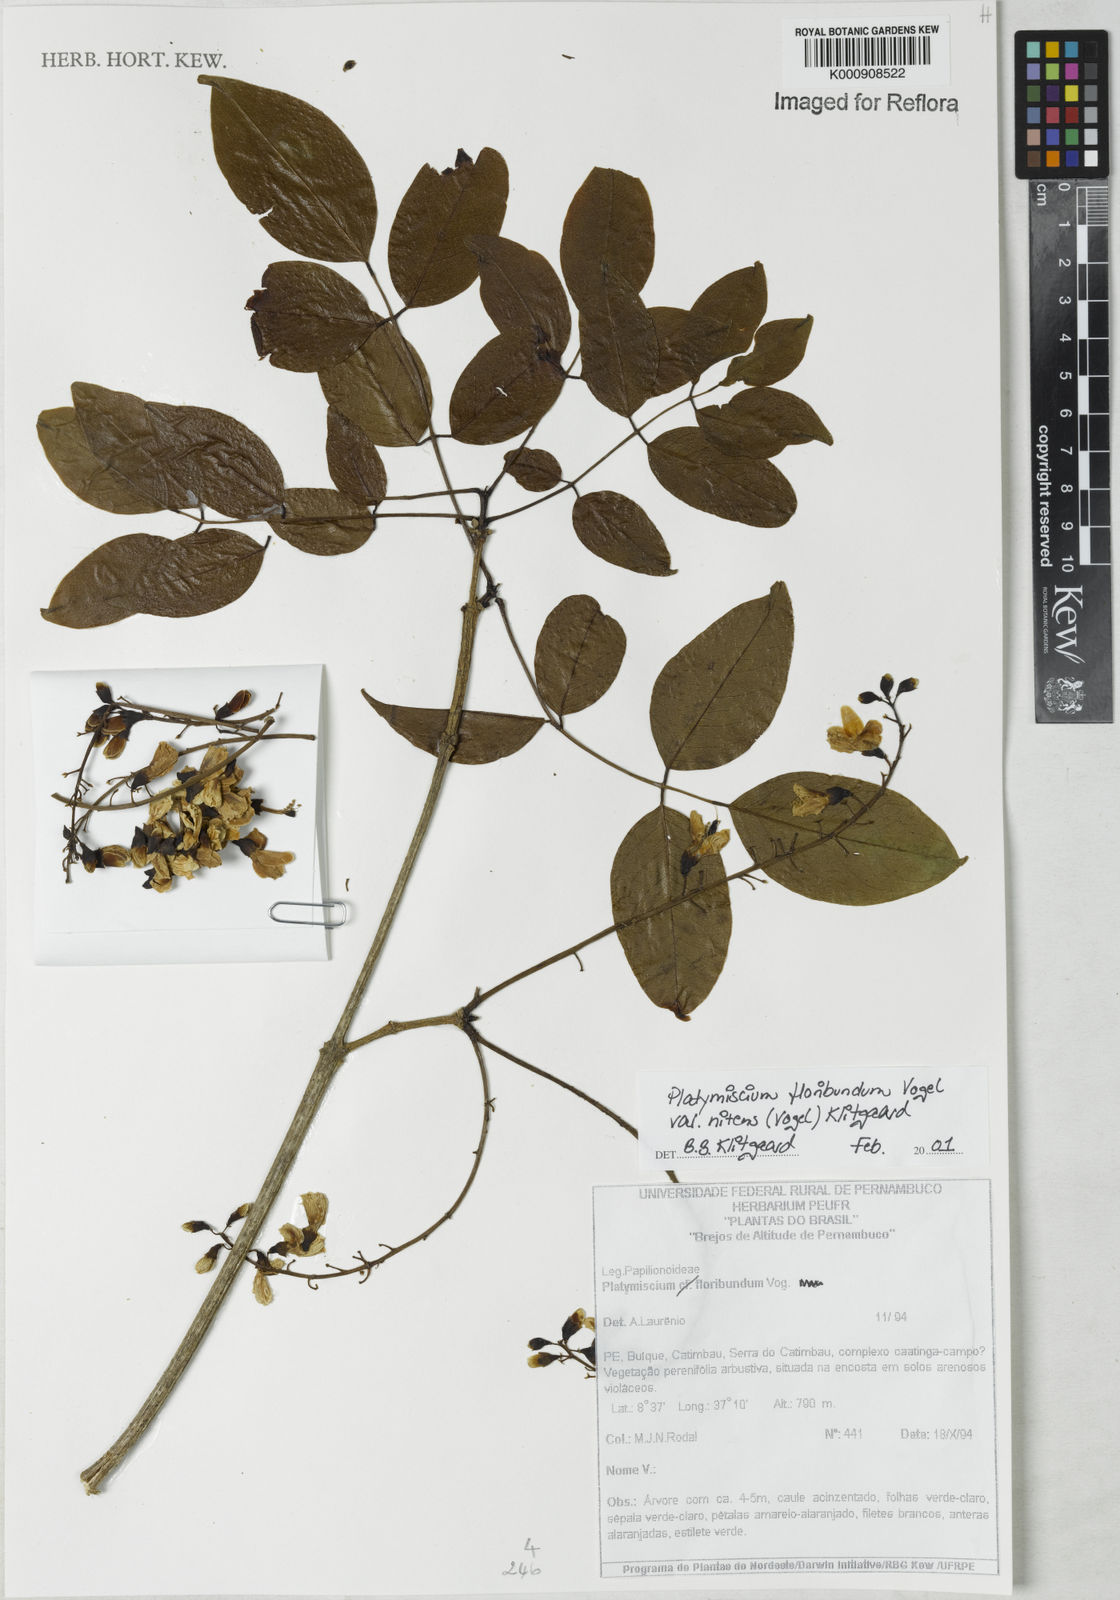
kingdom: Plantae
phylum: Tracheophyta
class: Magnoliopsida
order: Fabales
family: Fabaceae
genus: Platymiscium
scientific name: Platymiscium floribundum
